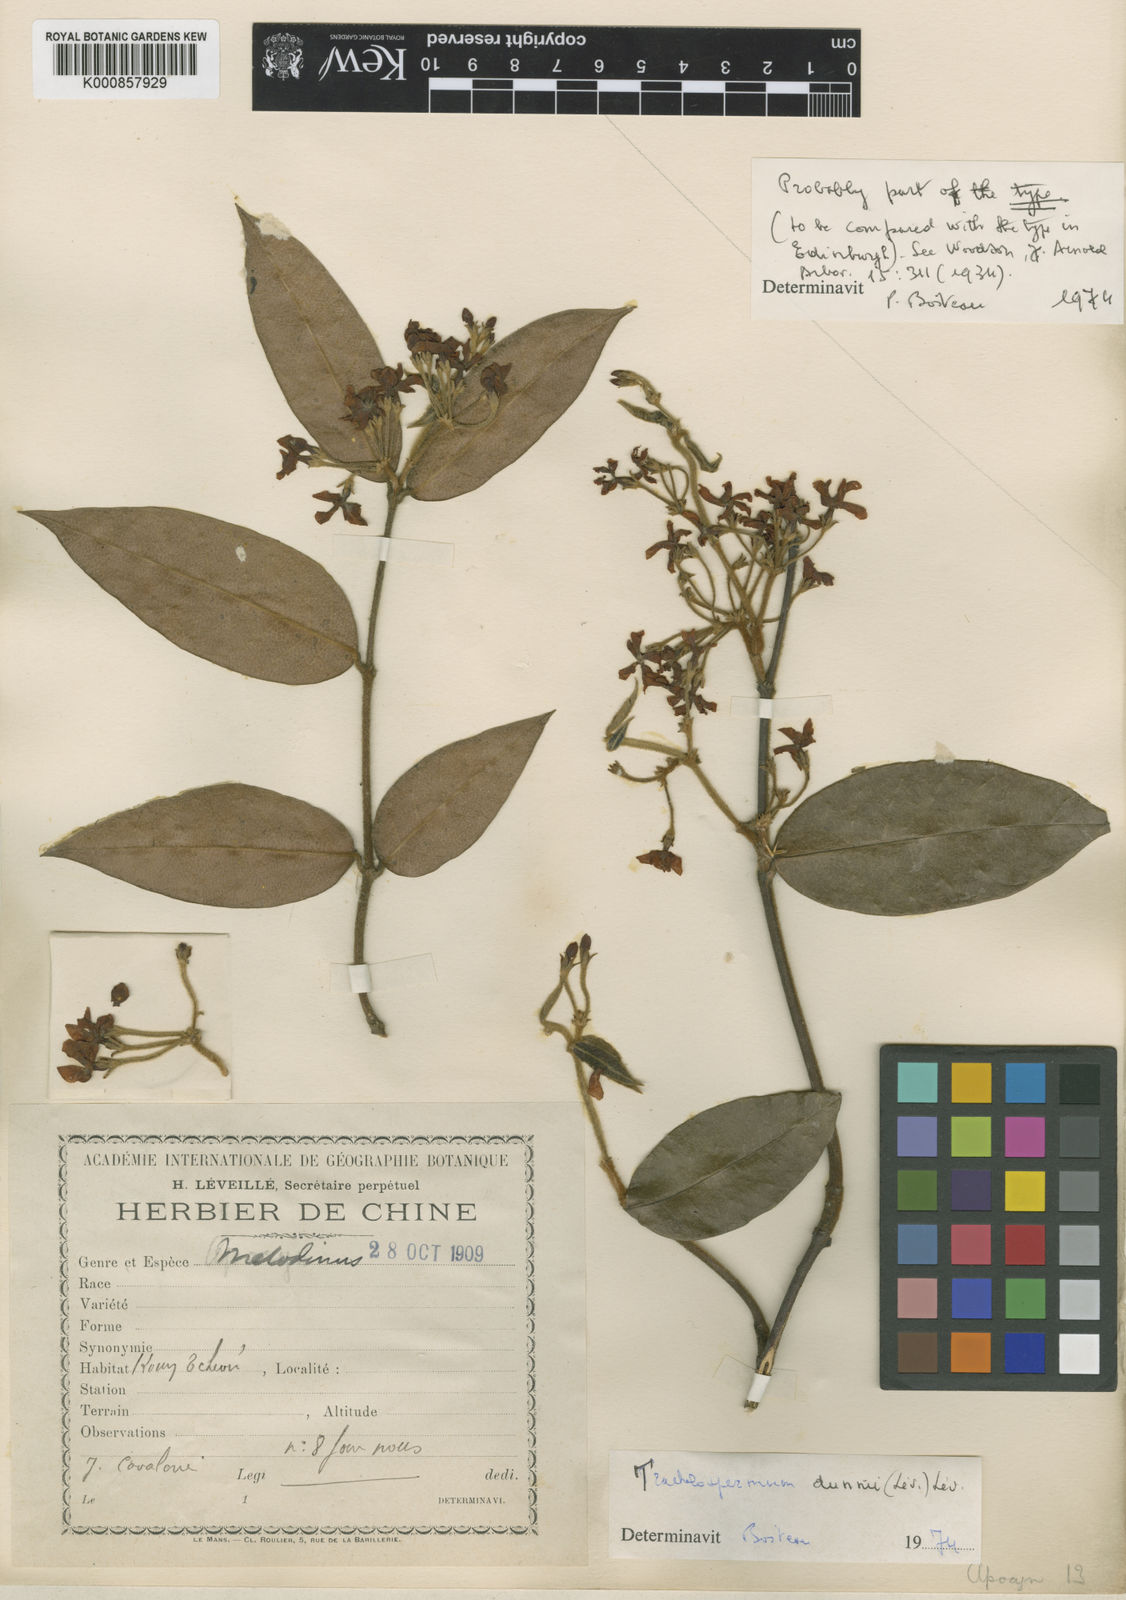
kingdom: Plantae
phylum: Tracheophyta
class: Magnoliopsida
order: Gentianales
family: Apocynaceae
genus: Trachelospermum
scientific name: Trachelospermum
